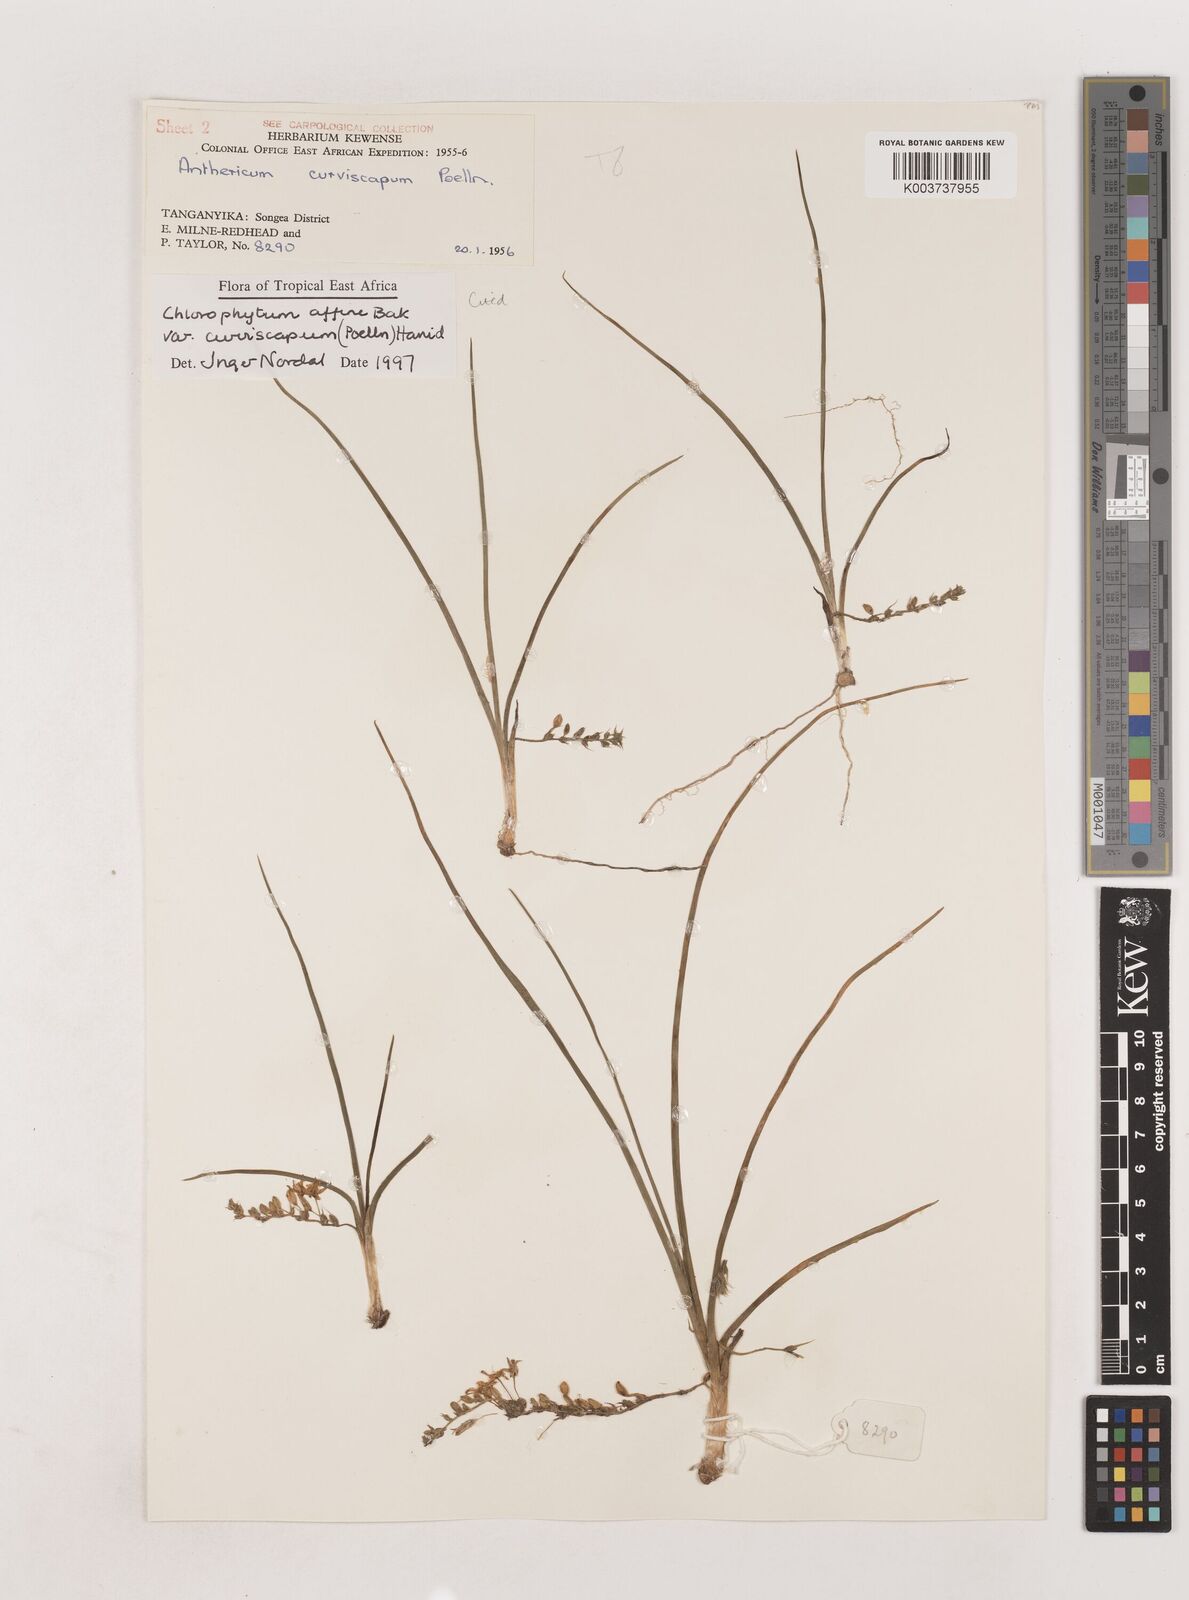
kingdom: Plantae
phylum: Tracheophyta
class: Liliopsida
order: Asparagales
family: Asparagaceae
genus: Chlorophytum
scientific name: Chlorophytum tordense
